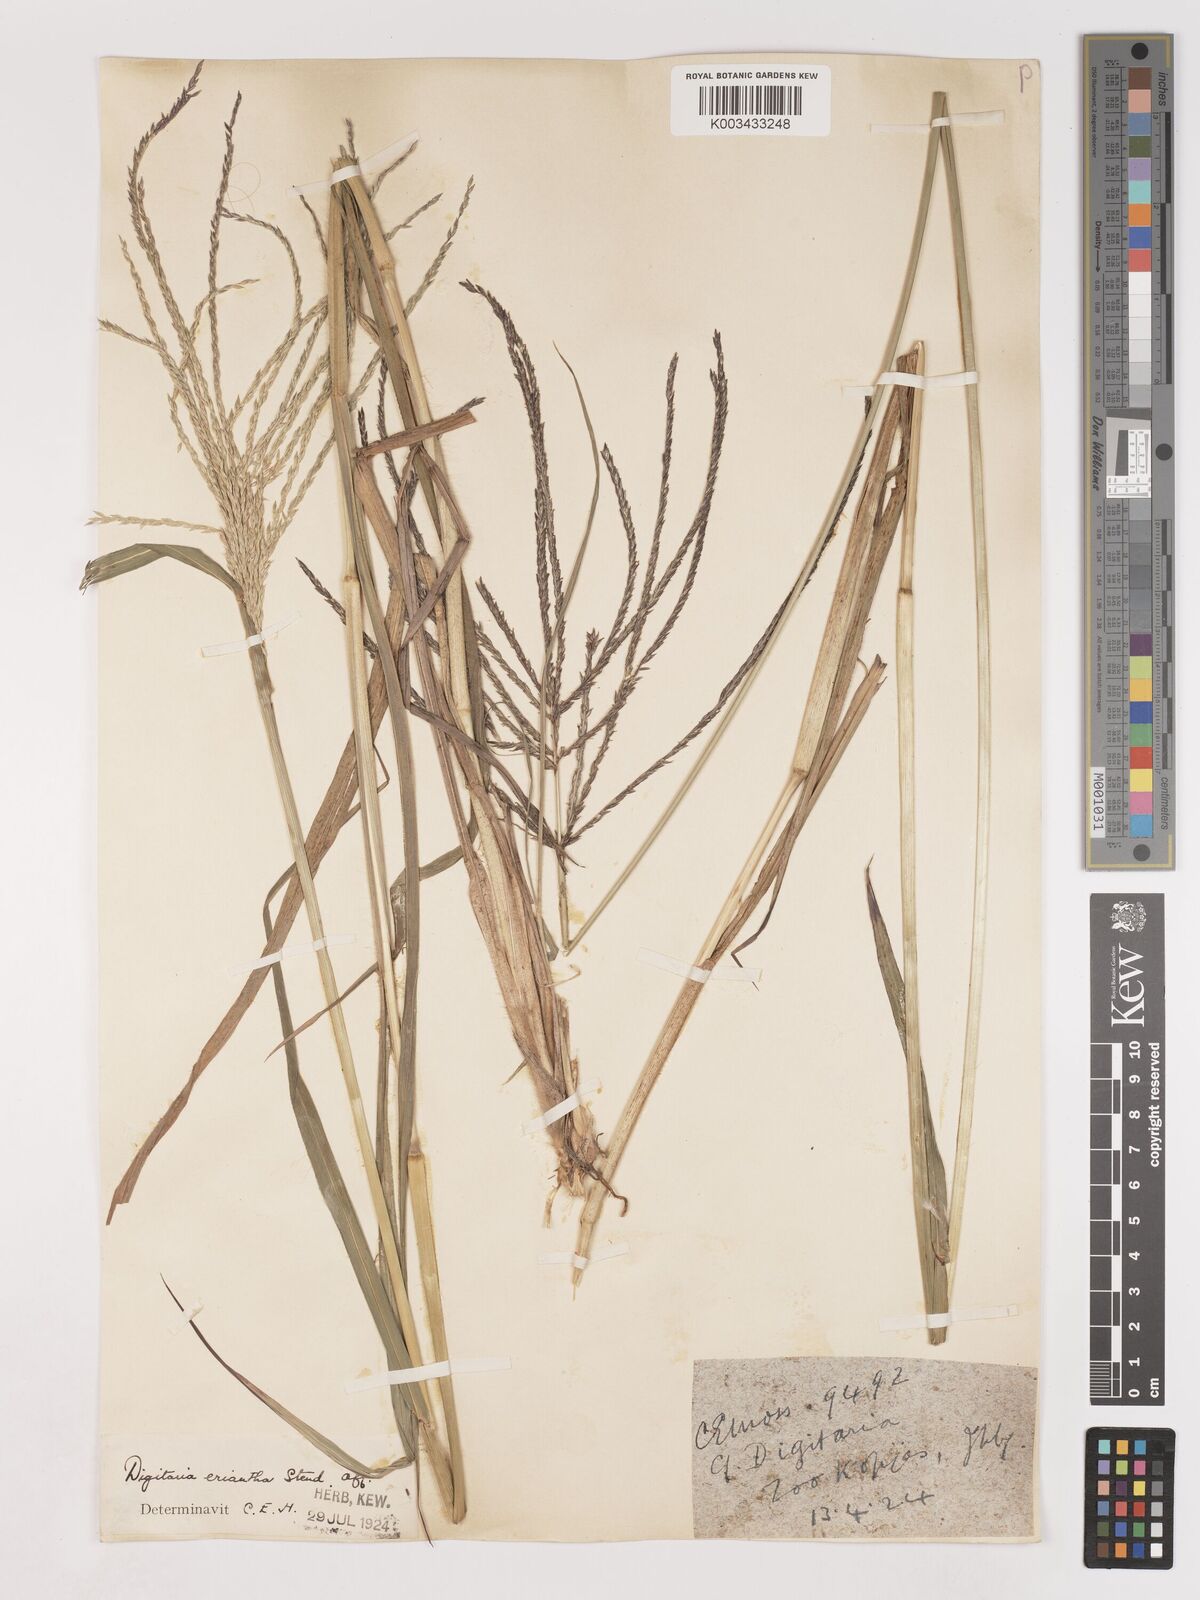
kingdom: Plantae
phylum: Tracheophyta
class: Liliopsida
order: Poales
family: Poaceae
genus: Digitaria
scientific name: Digitaria eriantha
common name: Digitgrass
